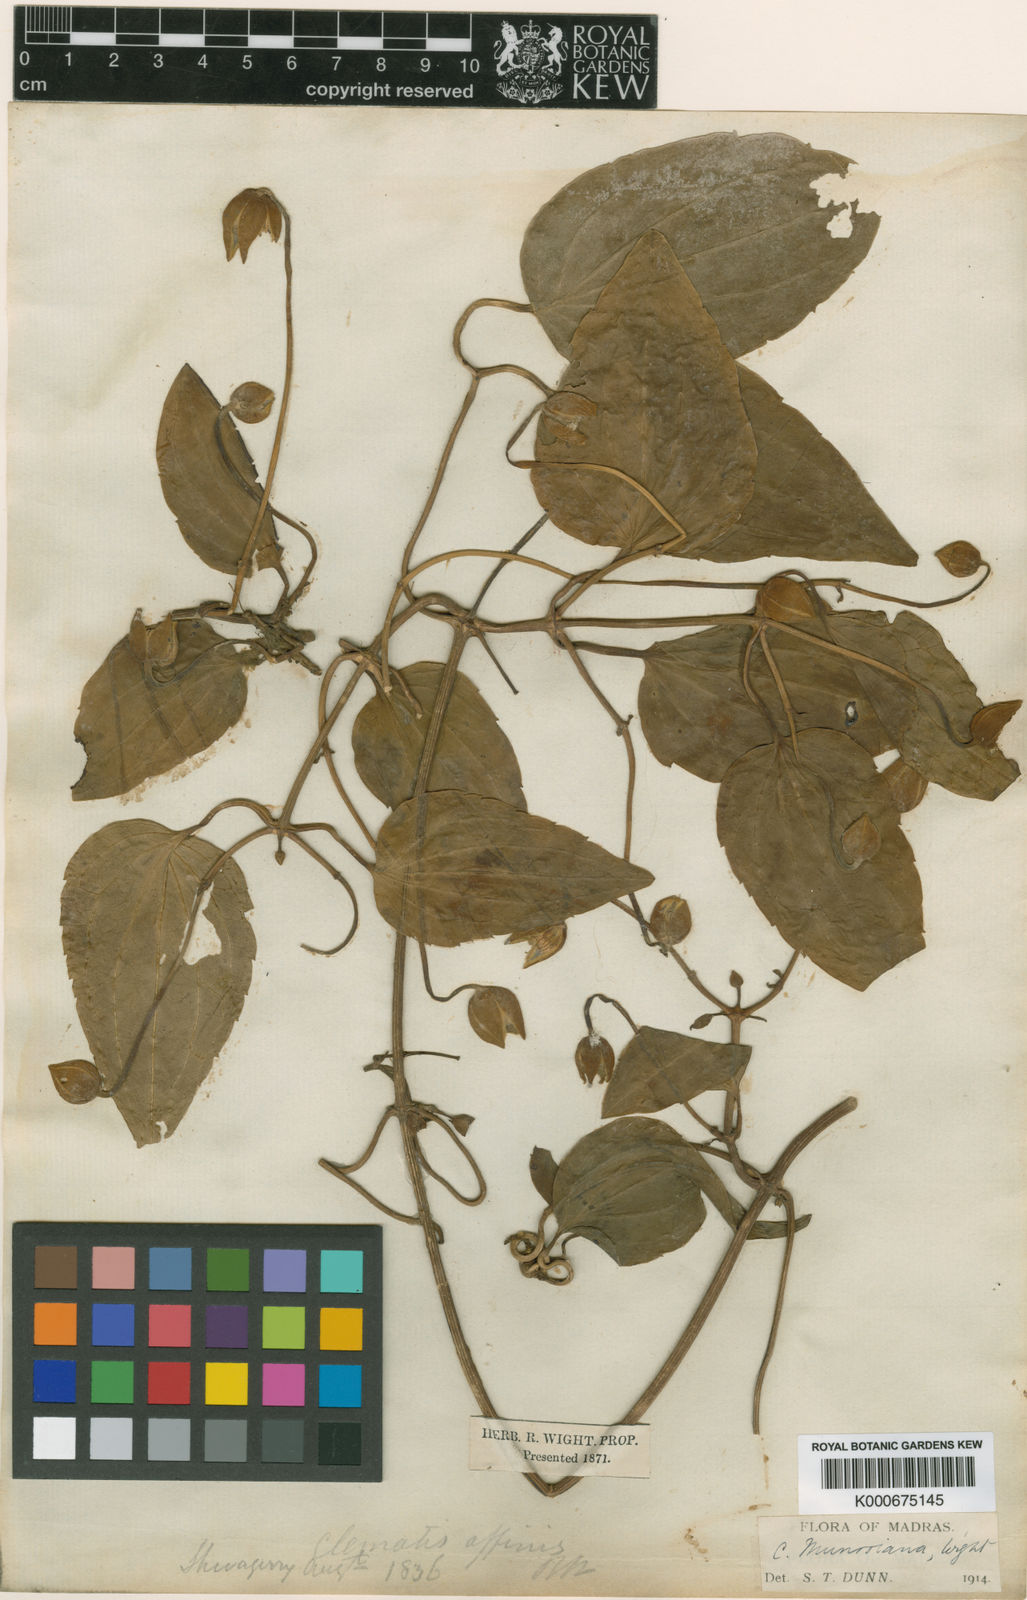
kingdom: Plantae
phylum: Tracheophyta
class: Magnoliopsida
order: Ranunculales
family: Ranunculaceae
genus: Clematis
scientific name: Clematis smilacifolia
